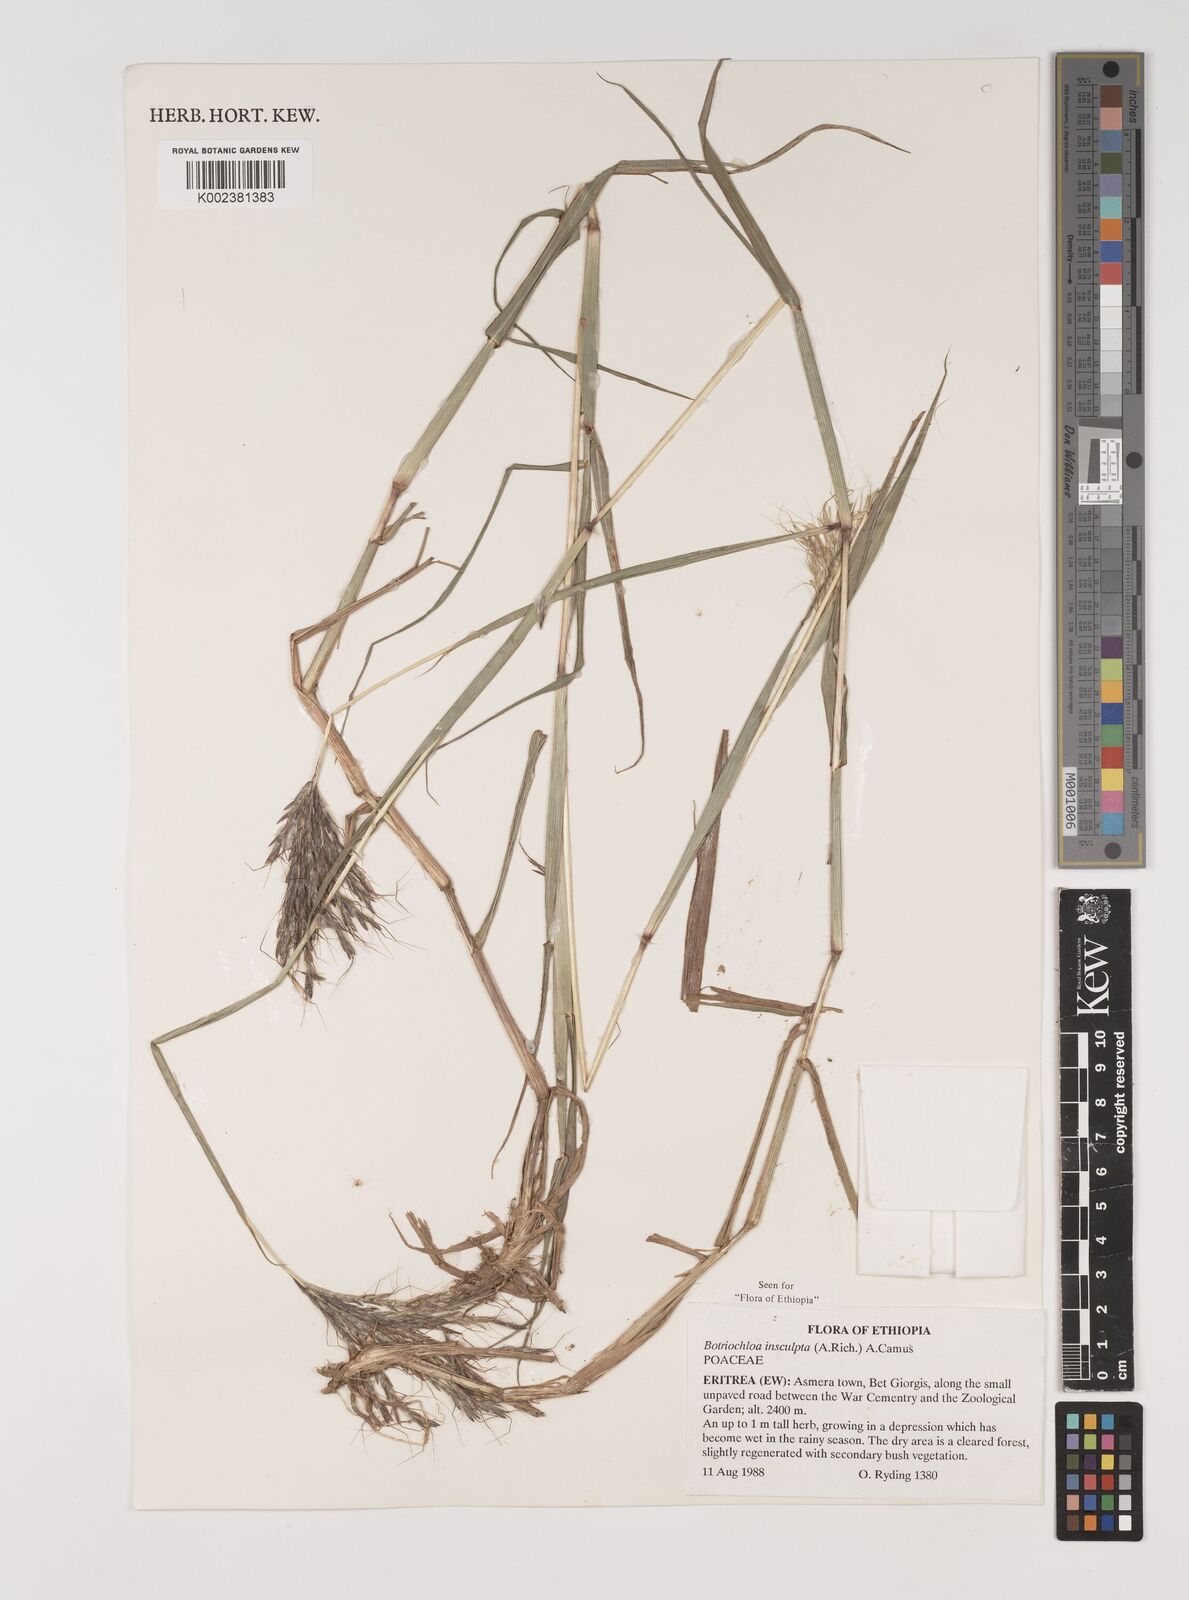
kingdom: Plantae
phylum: Tracheophyta
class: Liliopsida
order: Poales
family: Poaceae
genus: Bothriochloa
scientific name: Bothriochloa insculpta
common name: Creeping-bluegrass
